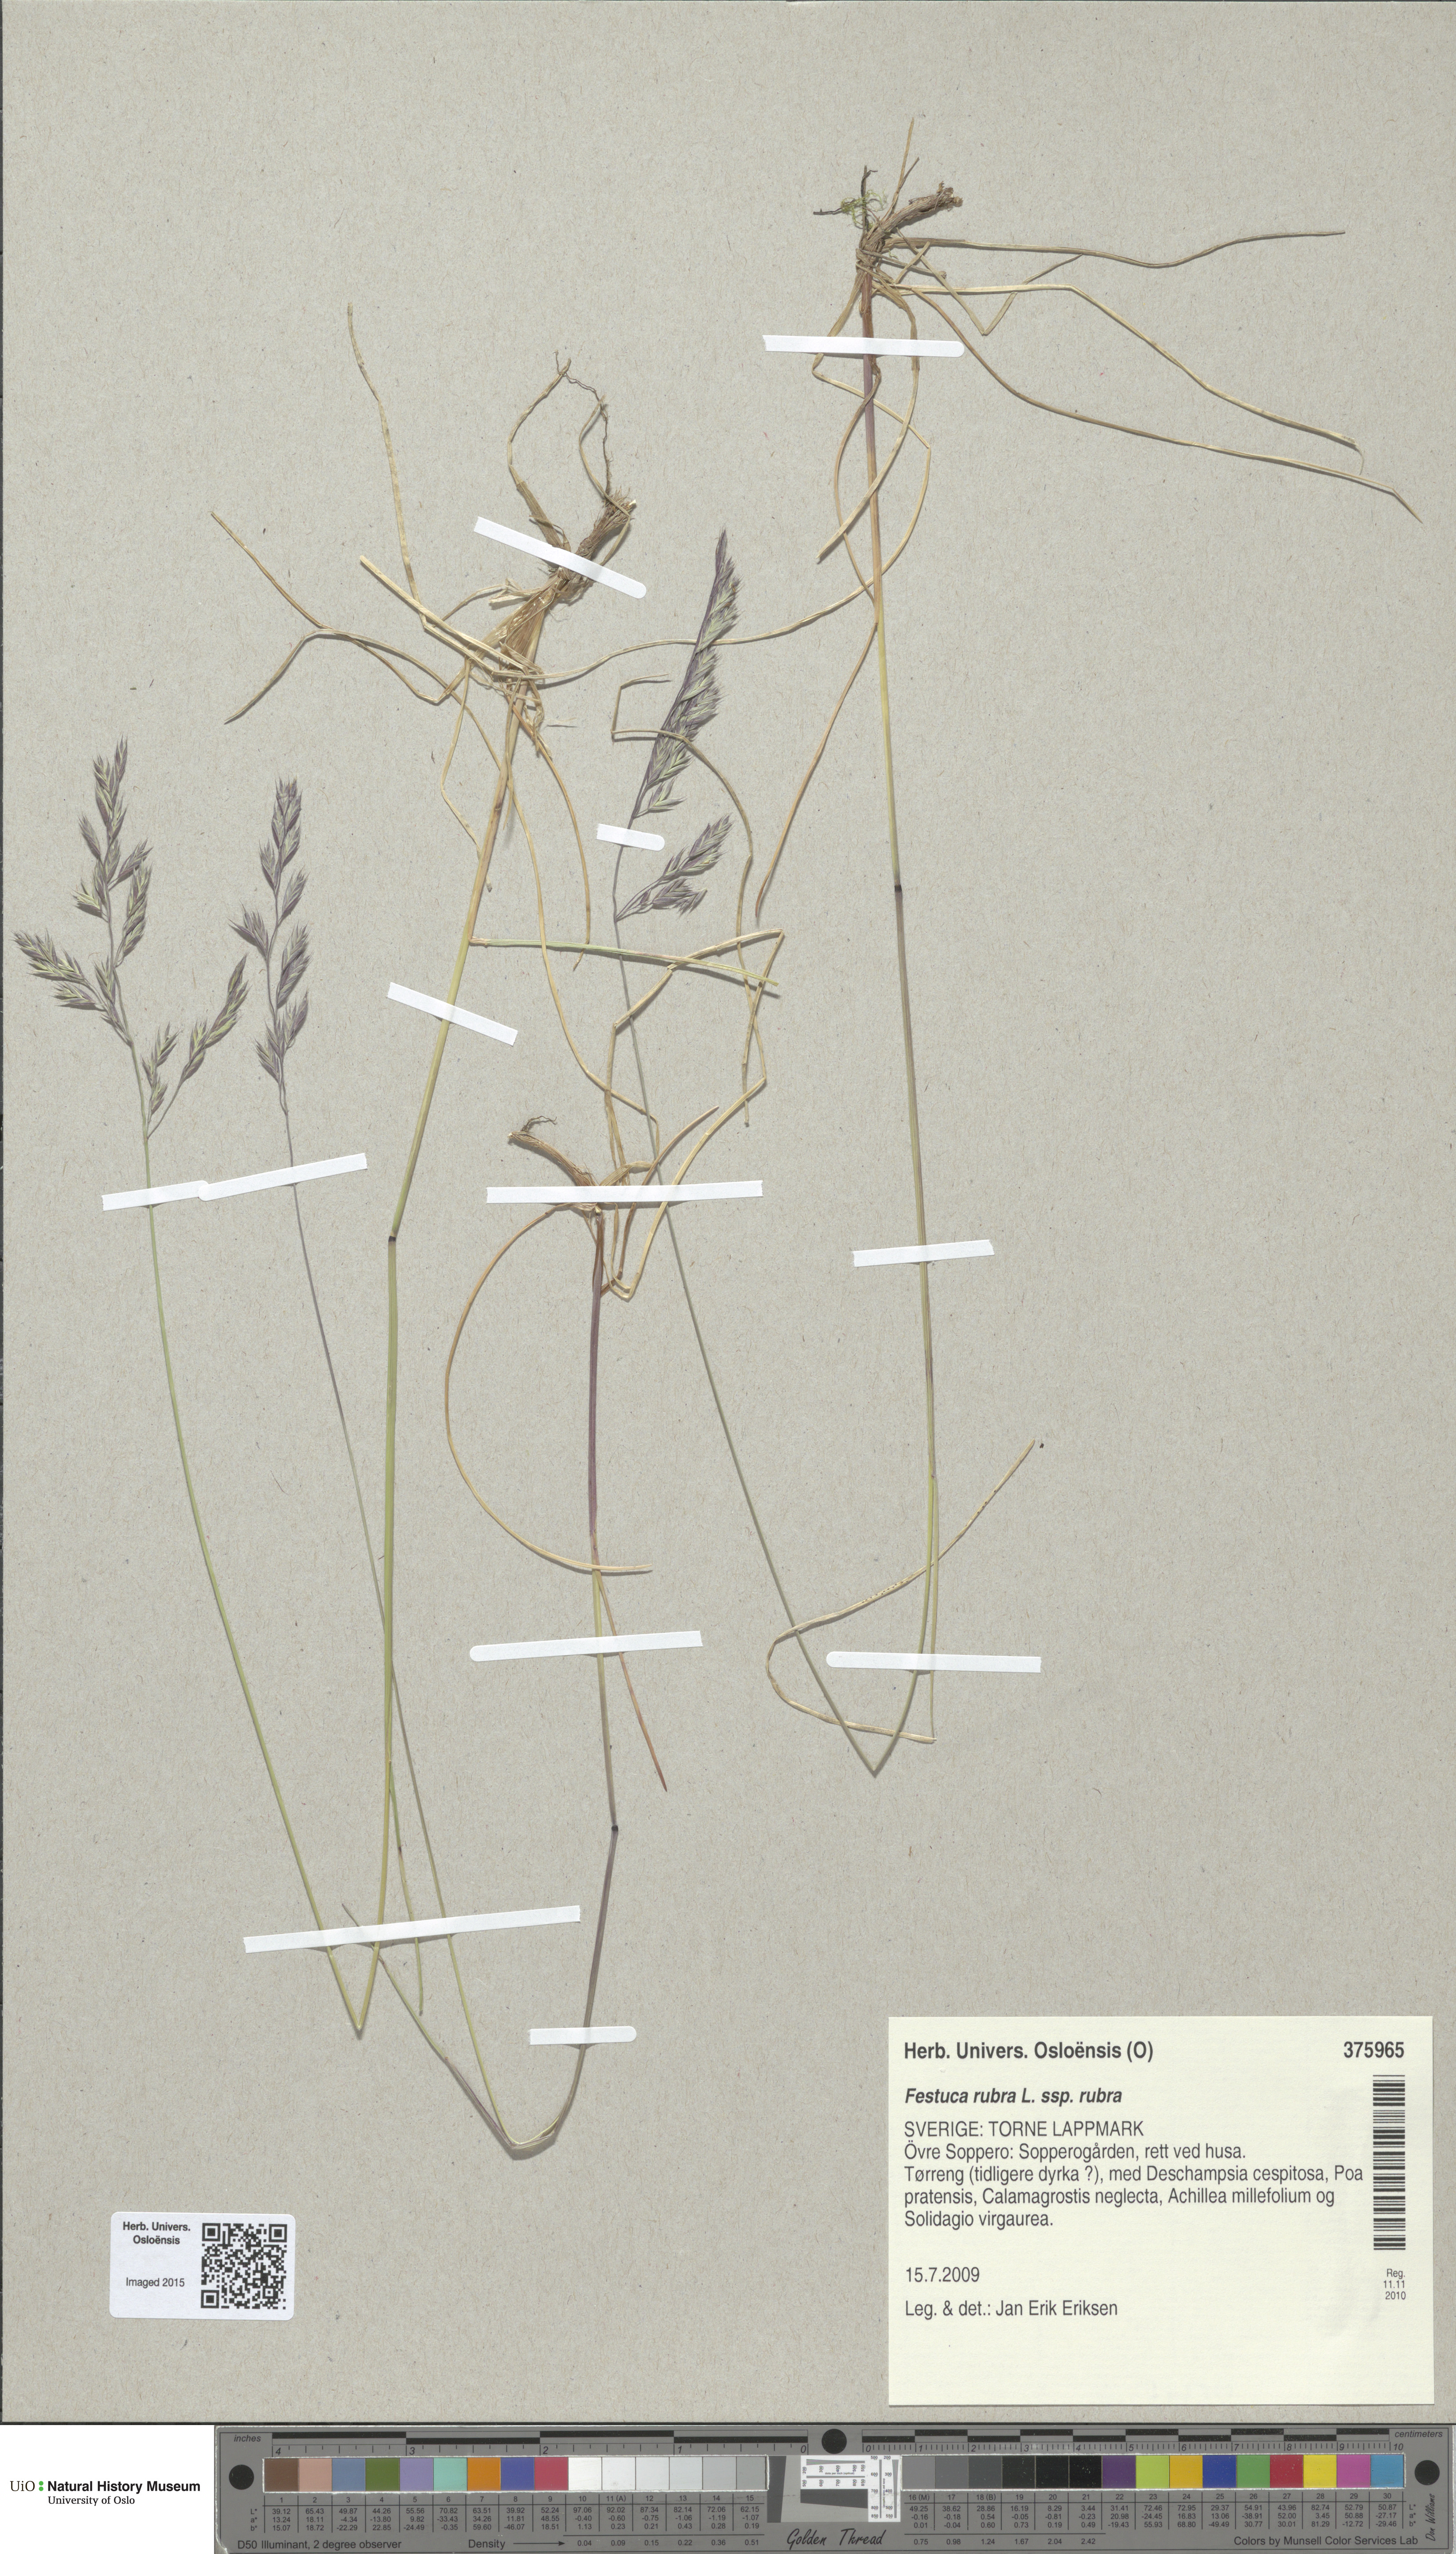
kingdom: Plantae
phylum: Tracheophyta
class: Liliopsida
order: Poales
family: Poaceae
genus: Festuca
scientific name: Festuca rubra
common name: Red fescue
